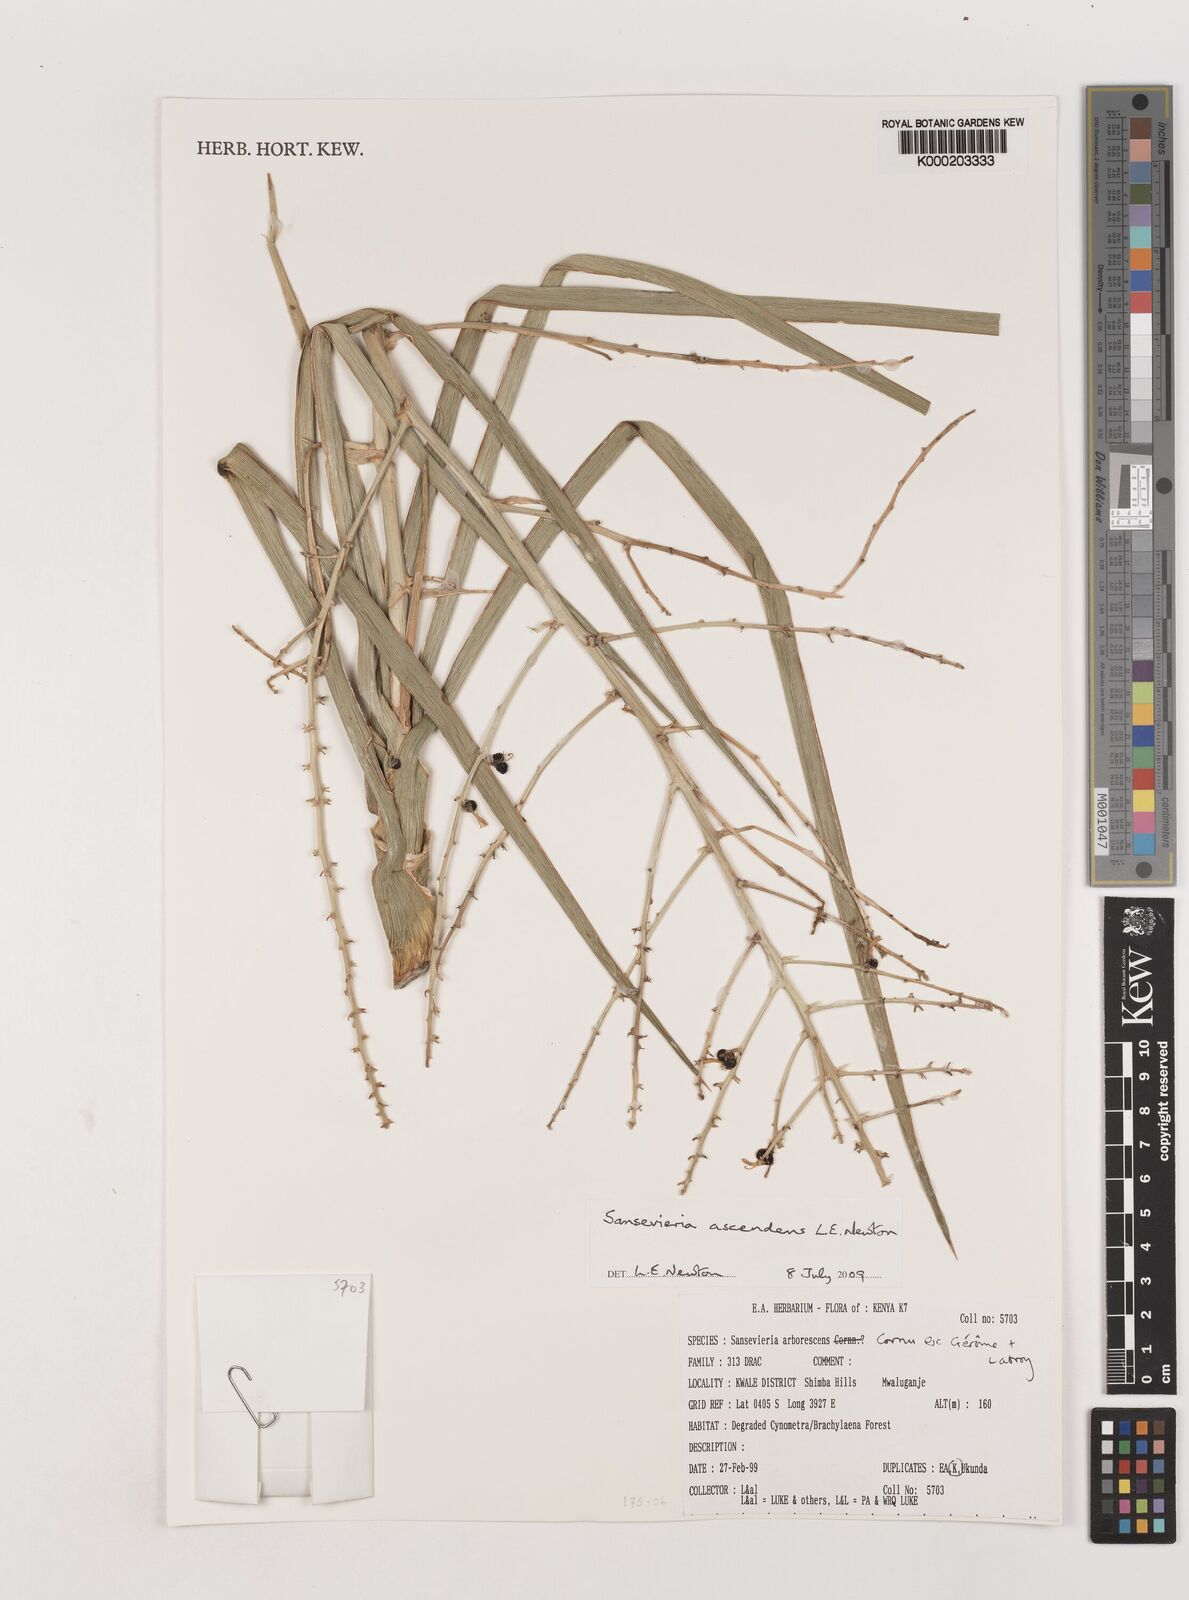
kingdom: Plantae
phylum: Tracheophyta
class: Liliopsida
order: Asparagales
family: Asparagaceae
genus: Dracaena
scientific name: Dracaena
